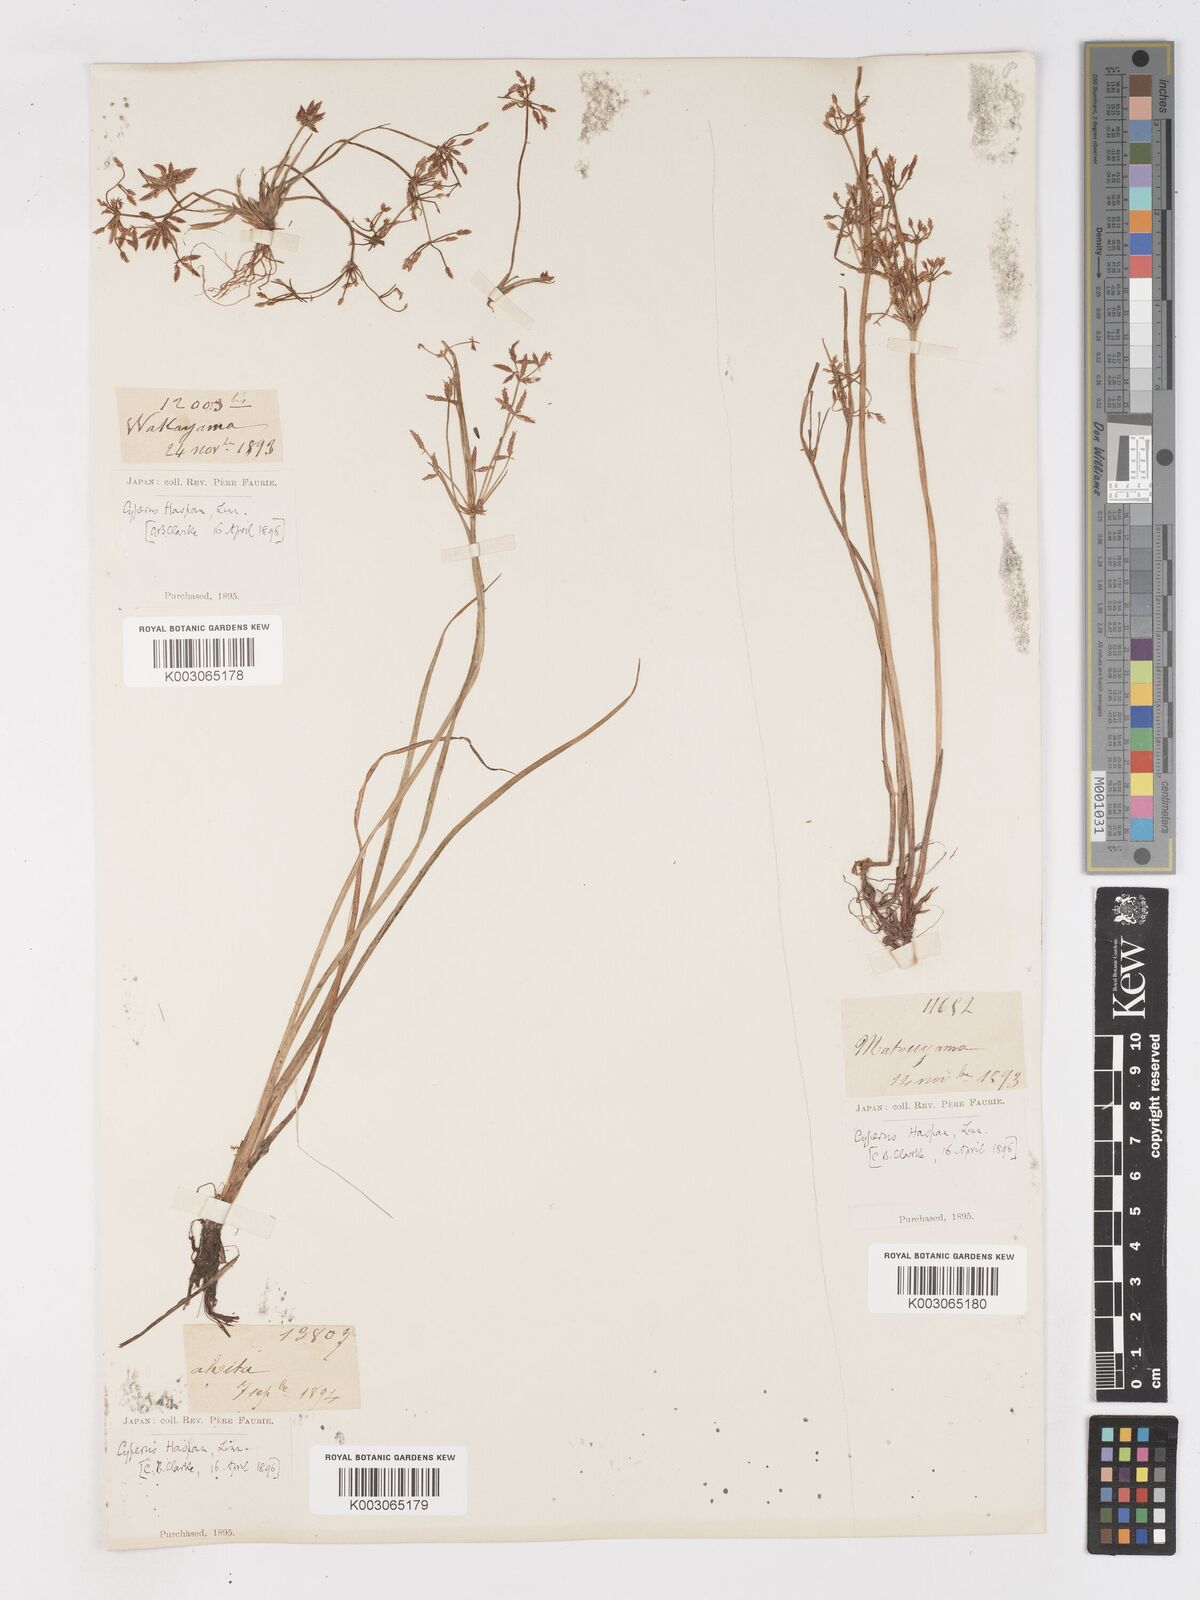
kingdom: Plantae
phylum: Tracheophyta
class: Liliopsida
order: Poales
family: Cyperaceae
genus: Cyperus
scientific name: Cyperus haspan
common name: Haspan flatsedge
